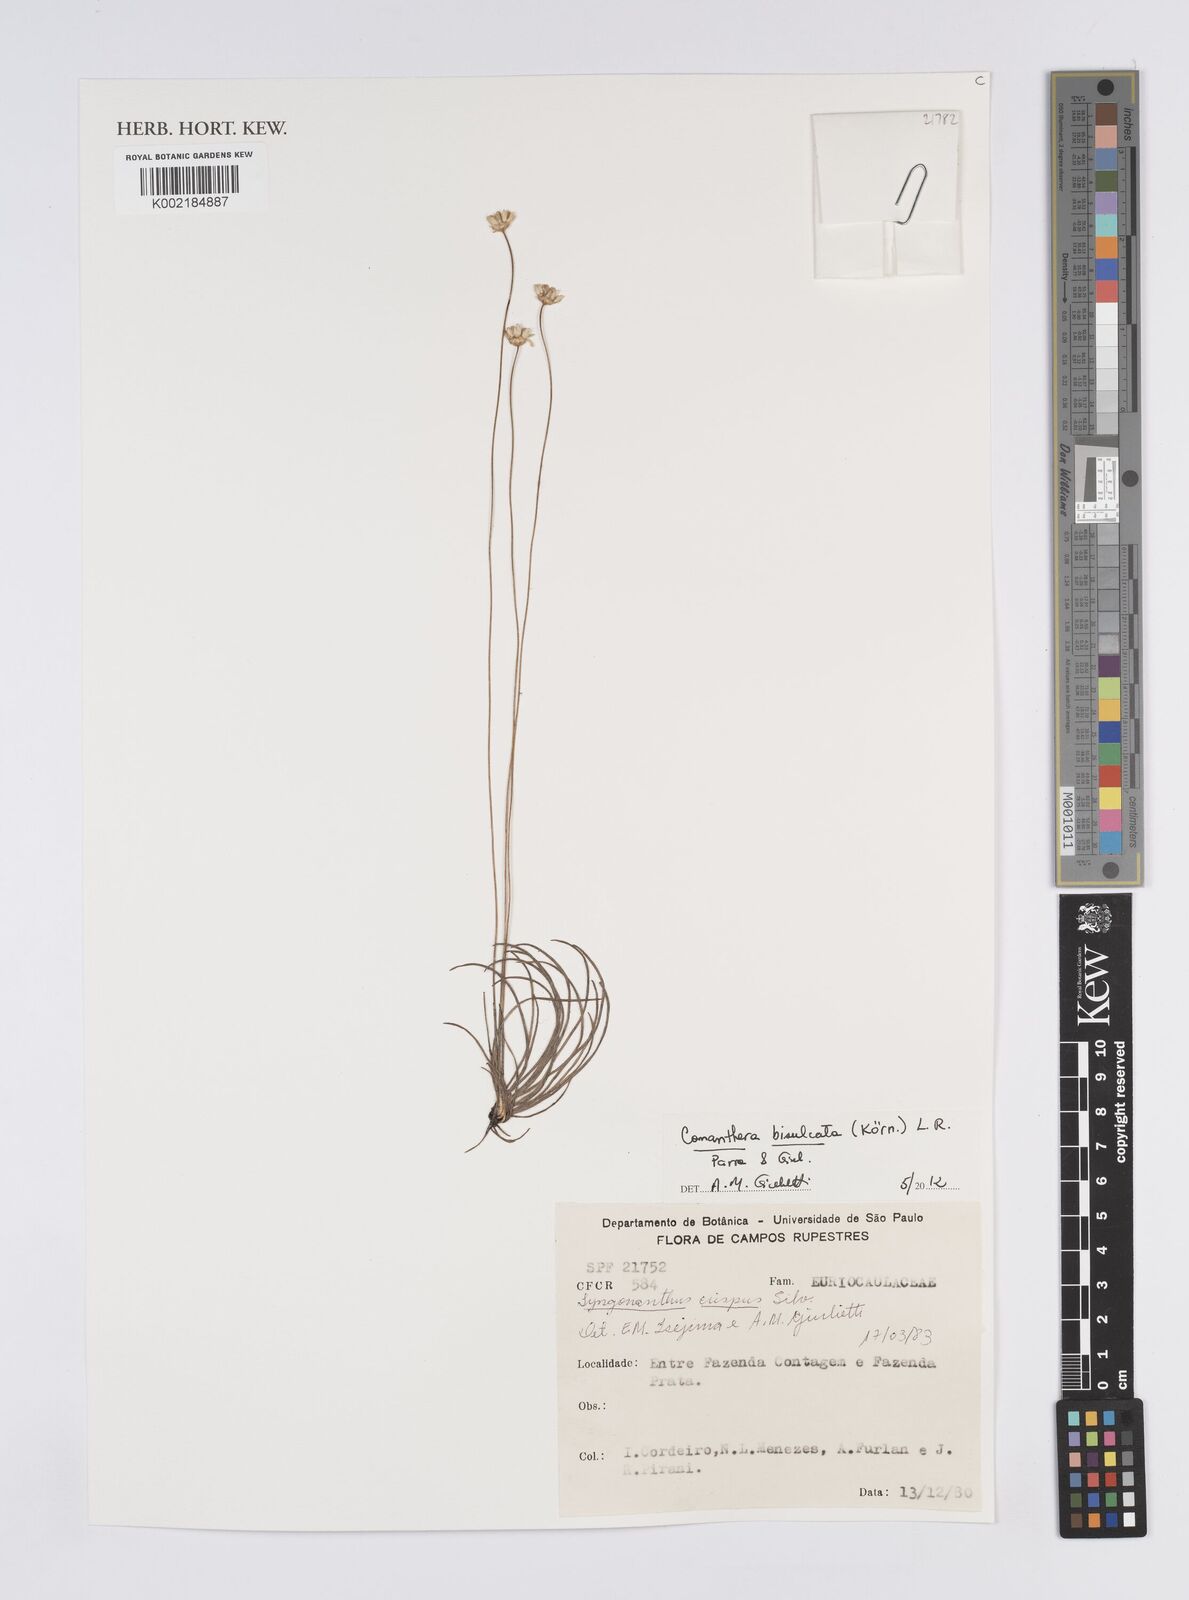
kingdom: Plantae
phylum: Tracheophyta
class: Liliopsida
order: Poales
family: Eriocaulaceae
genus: Comanthera
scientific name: Comanthera bisulcata
